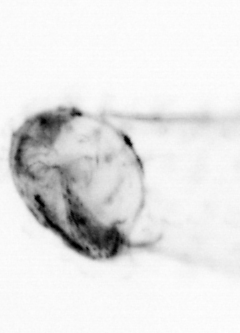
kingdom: Animalia
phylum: Chaetognatha
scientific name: Chaetognatha
